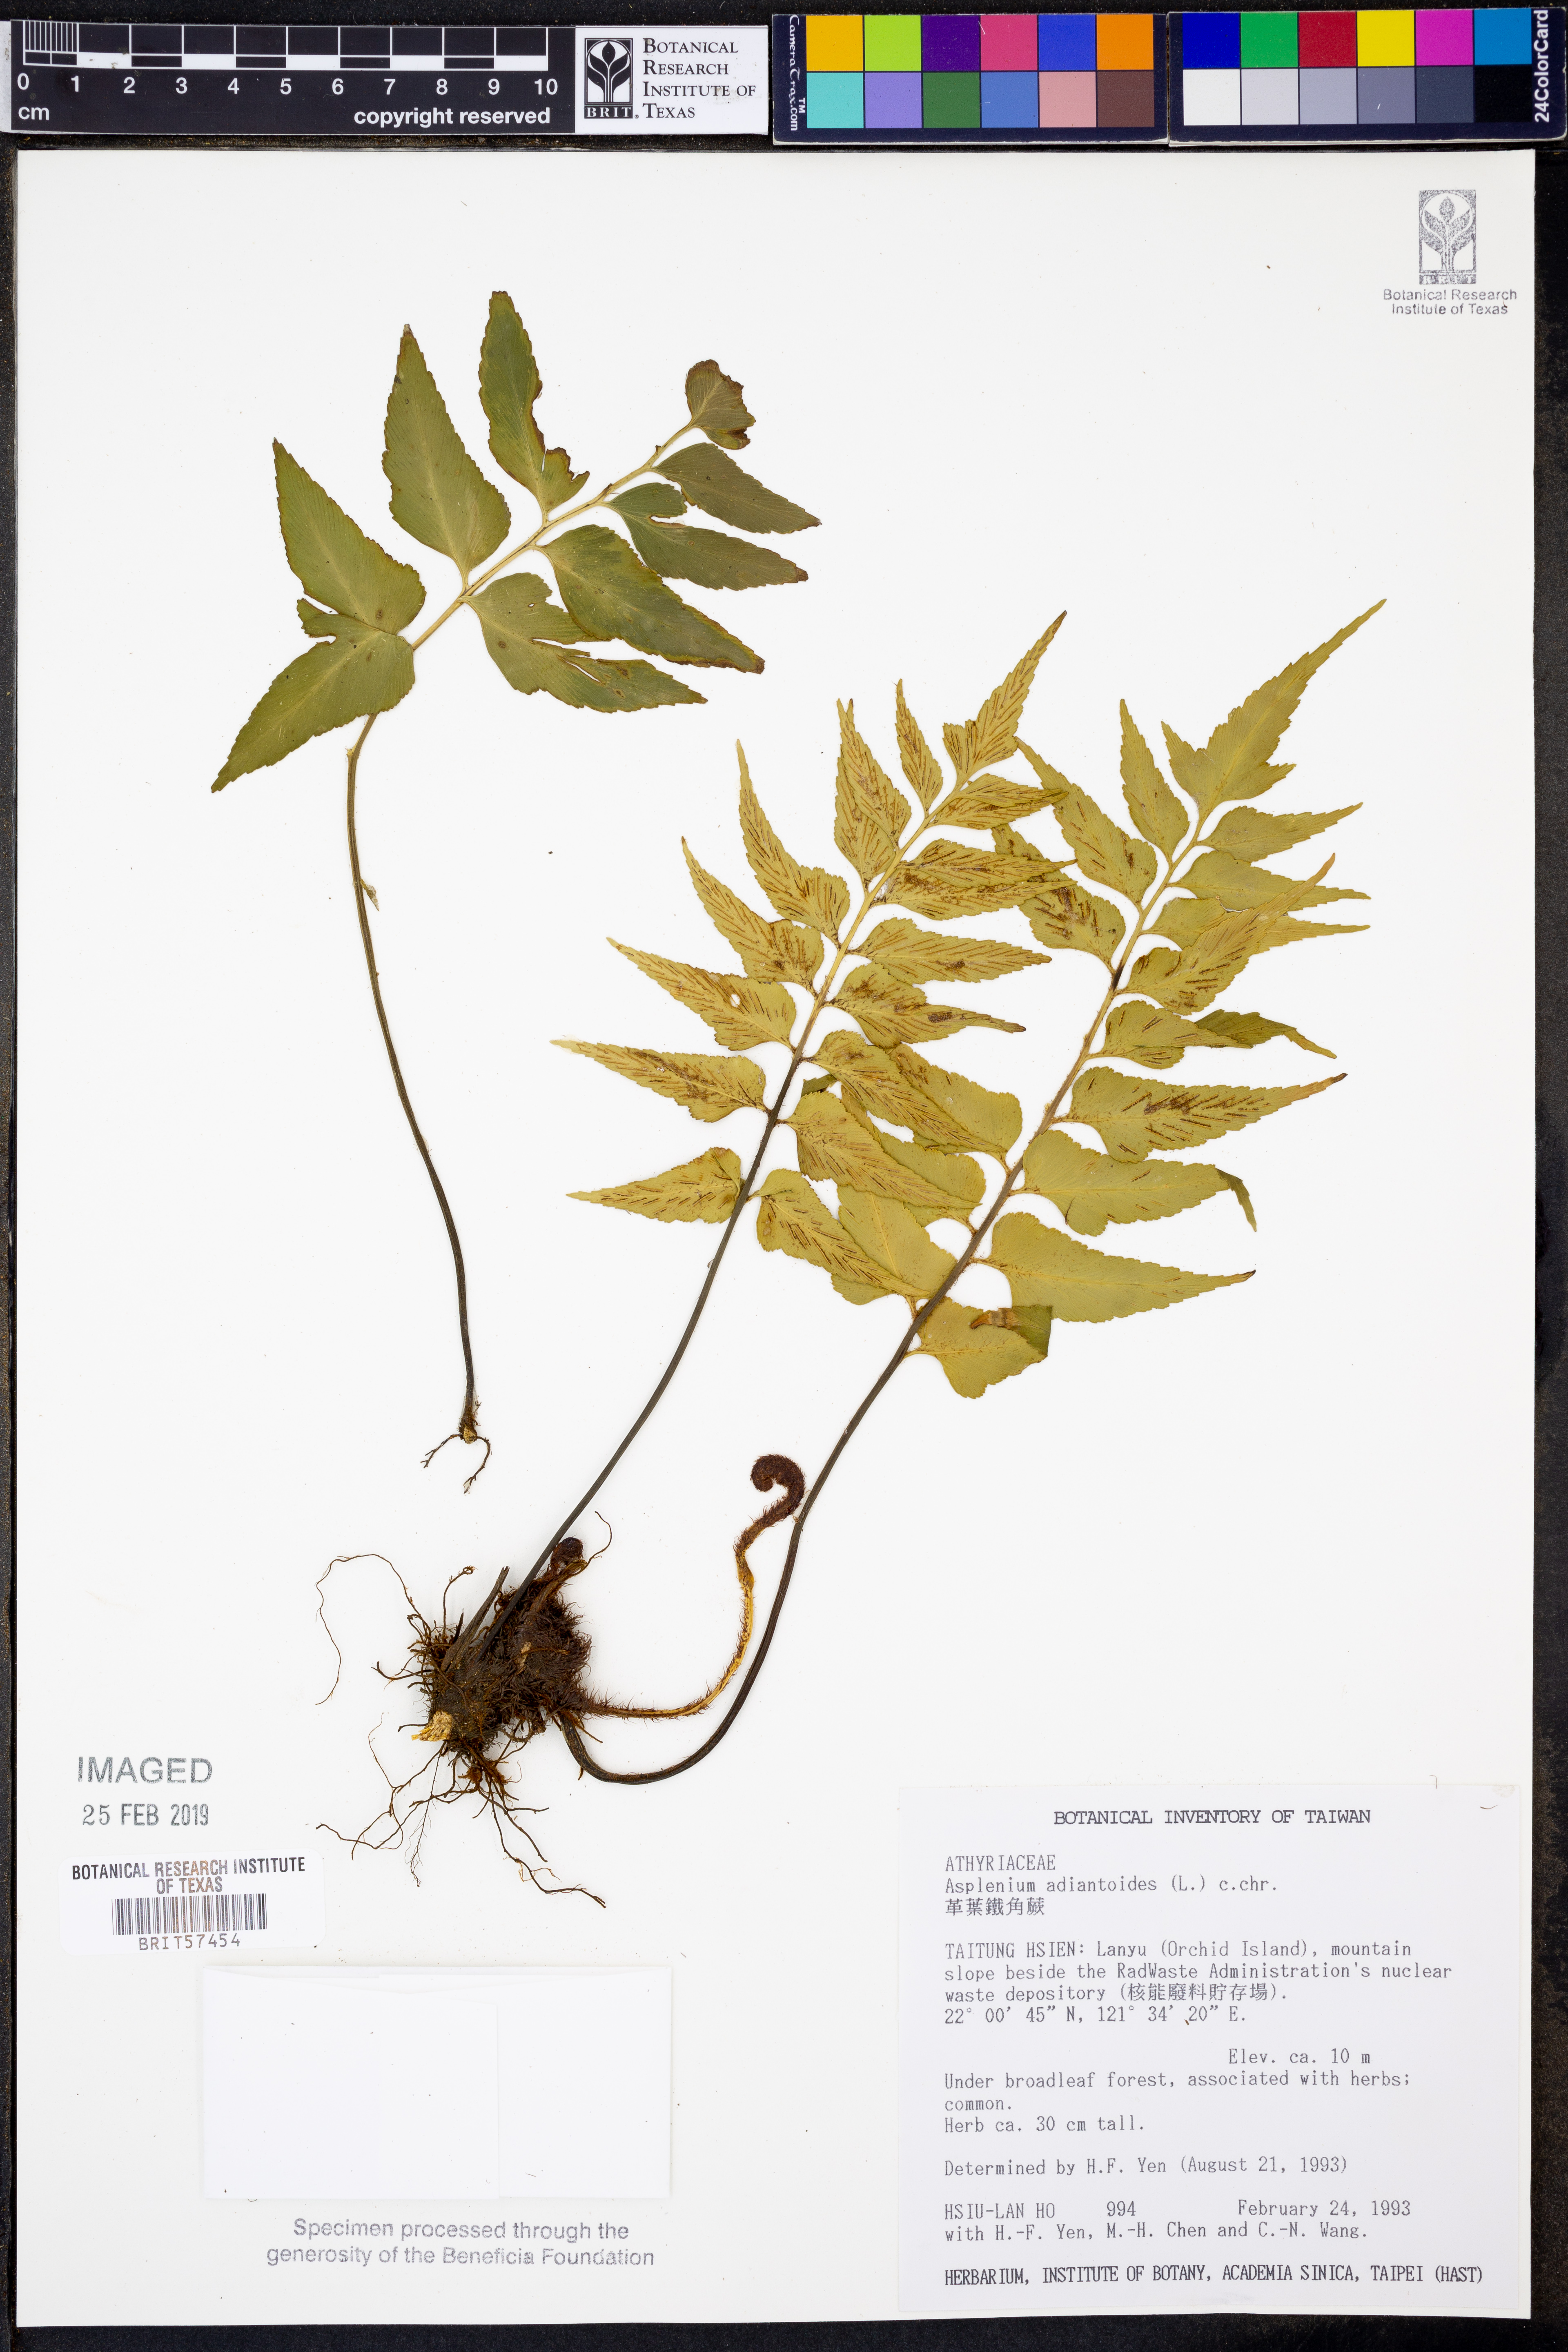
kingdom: Plantae
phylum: Tracheophyta
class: Polypodiopsida
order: Polypodiales
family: Aspleniaceae
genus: Asplenium
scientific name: Asplenium aethiopicum
